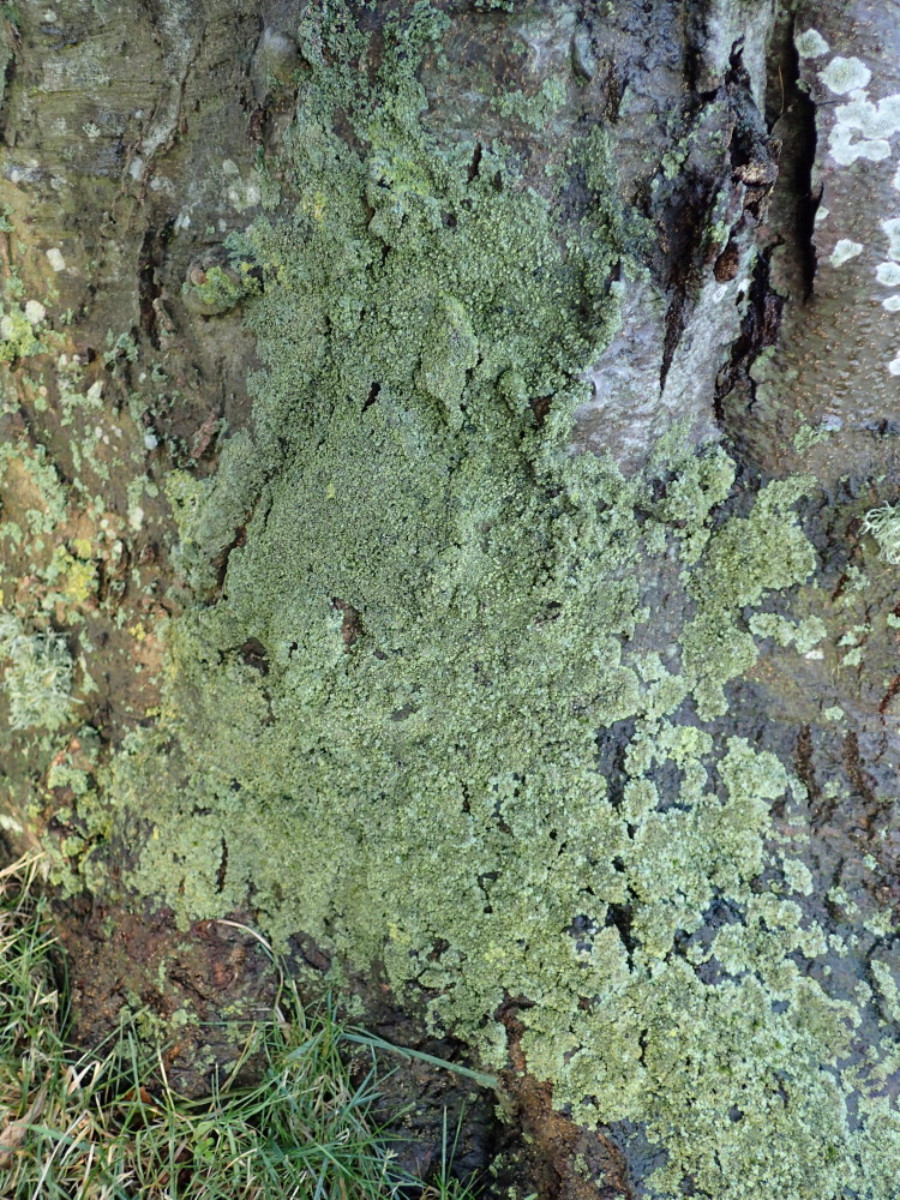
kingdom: Fungi
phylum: Ascomycota
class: Lecanoromycetes
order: Caliciales
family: Physciaceae
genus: Phaeophyscia
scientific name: Phaeophyscia orbicularis
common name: grågrøn rosetlav
